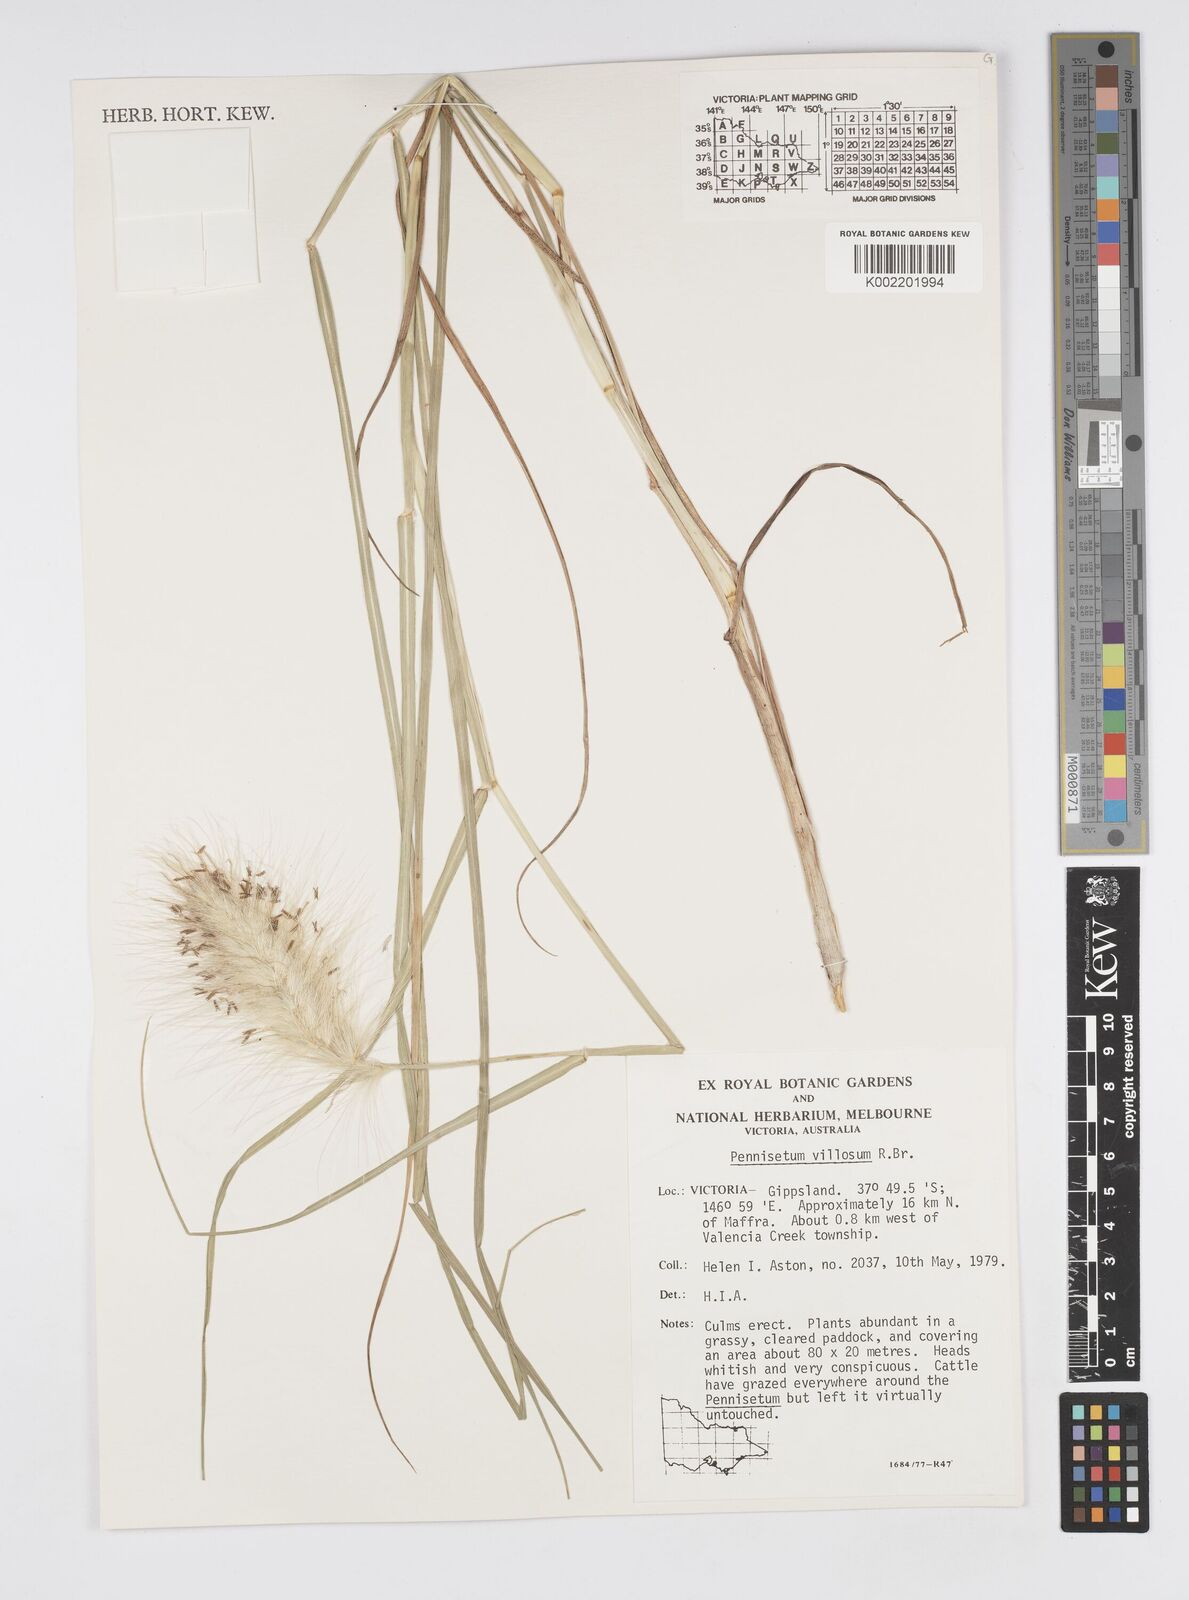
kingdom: Plantae
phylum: Tracheophyta
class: Liliopsida
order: Poales
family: Poaceae
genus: Cenchrus
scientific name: Cenchrus longisetus
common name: Feathertop
